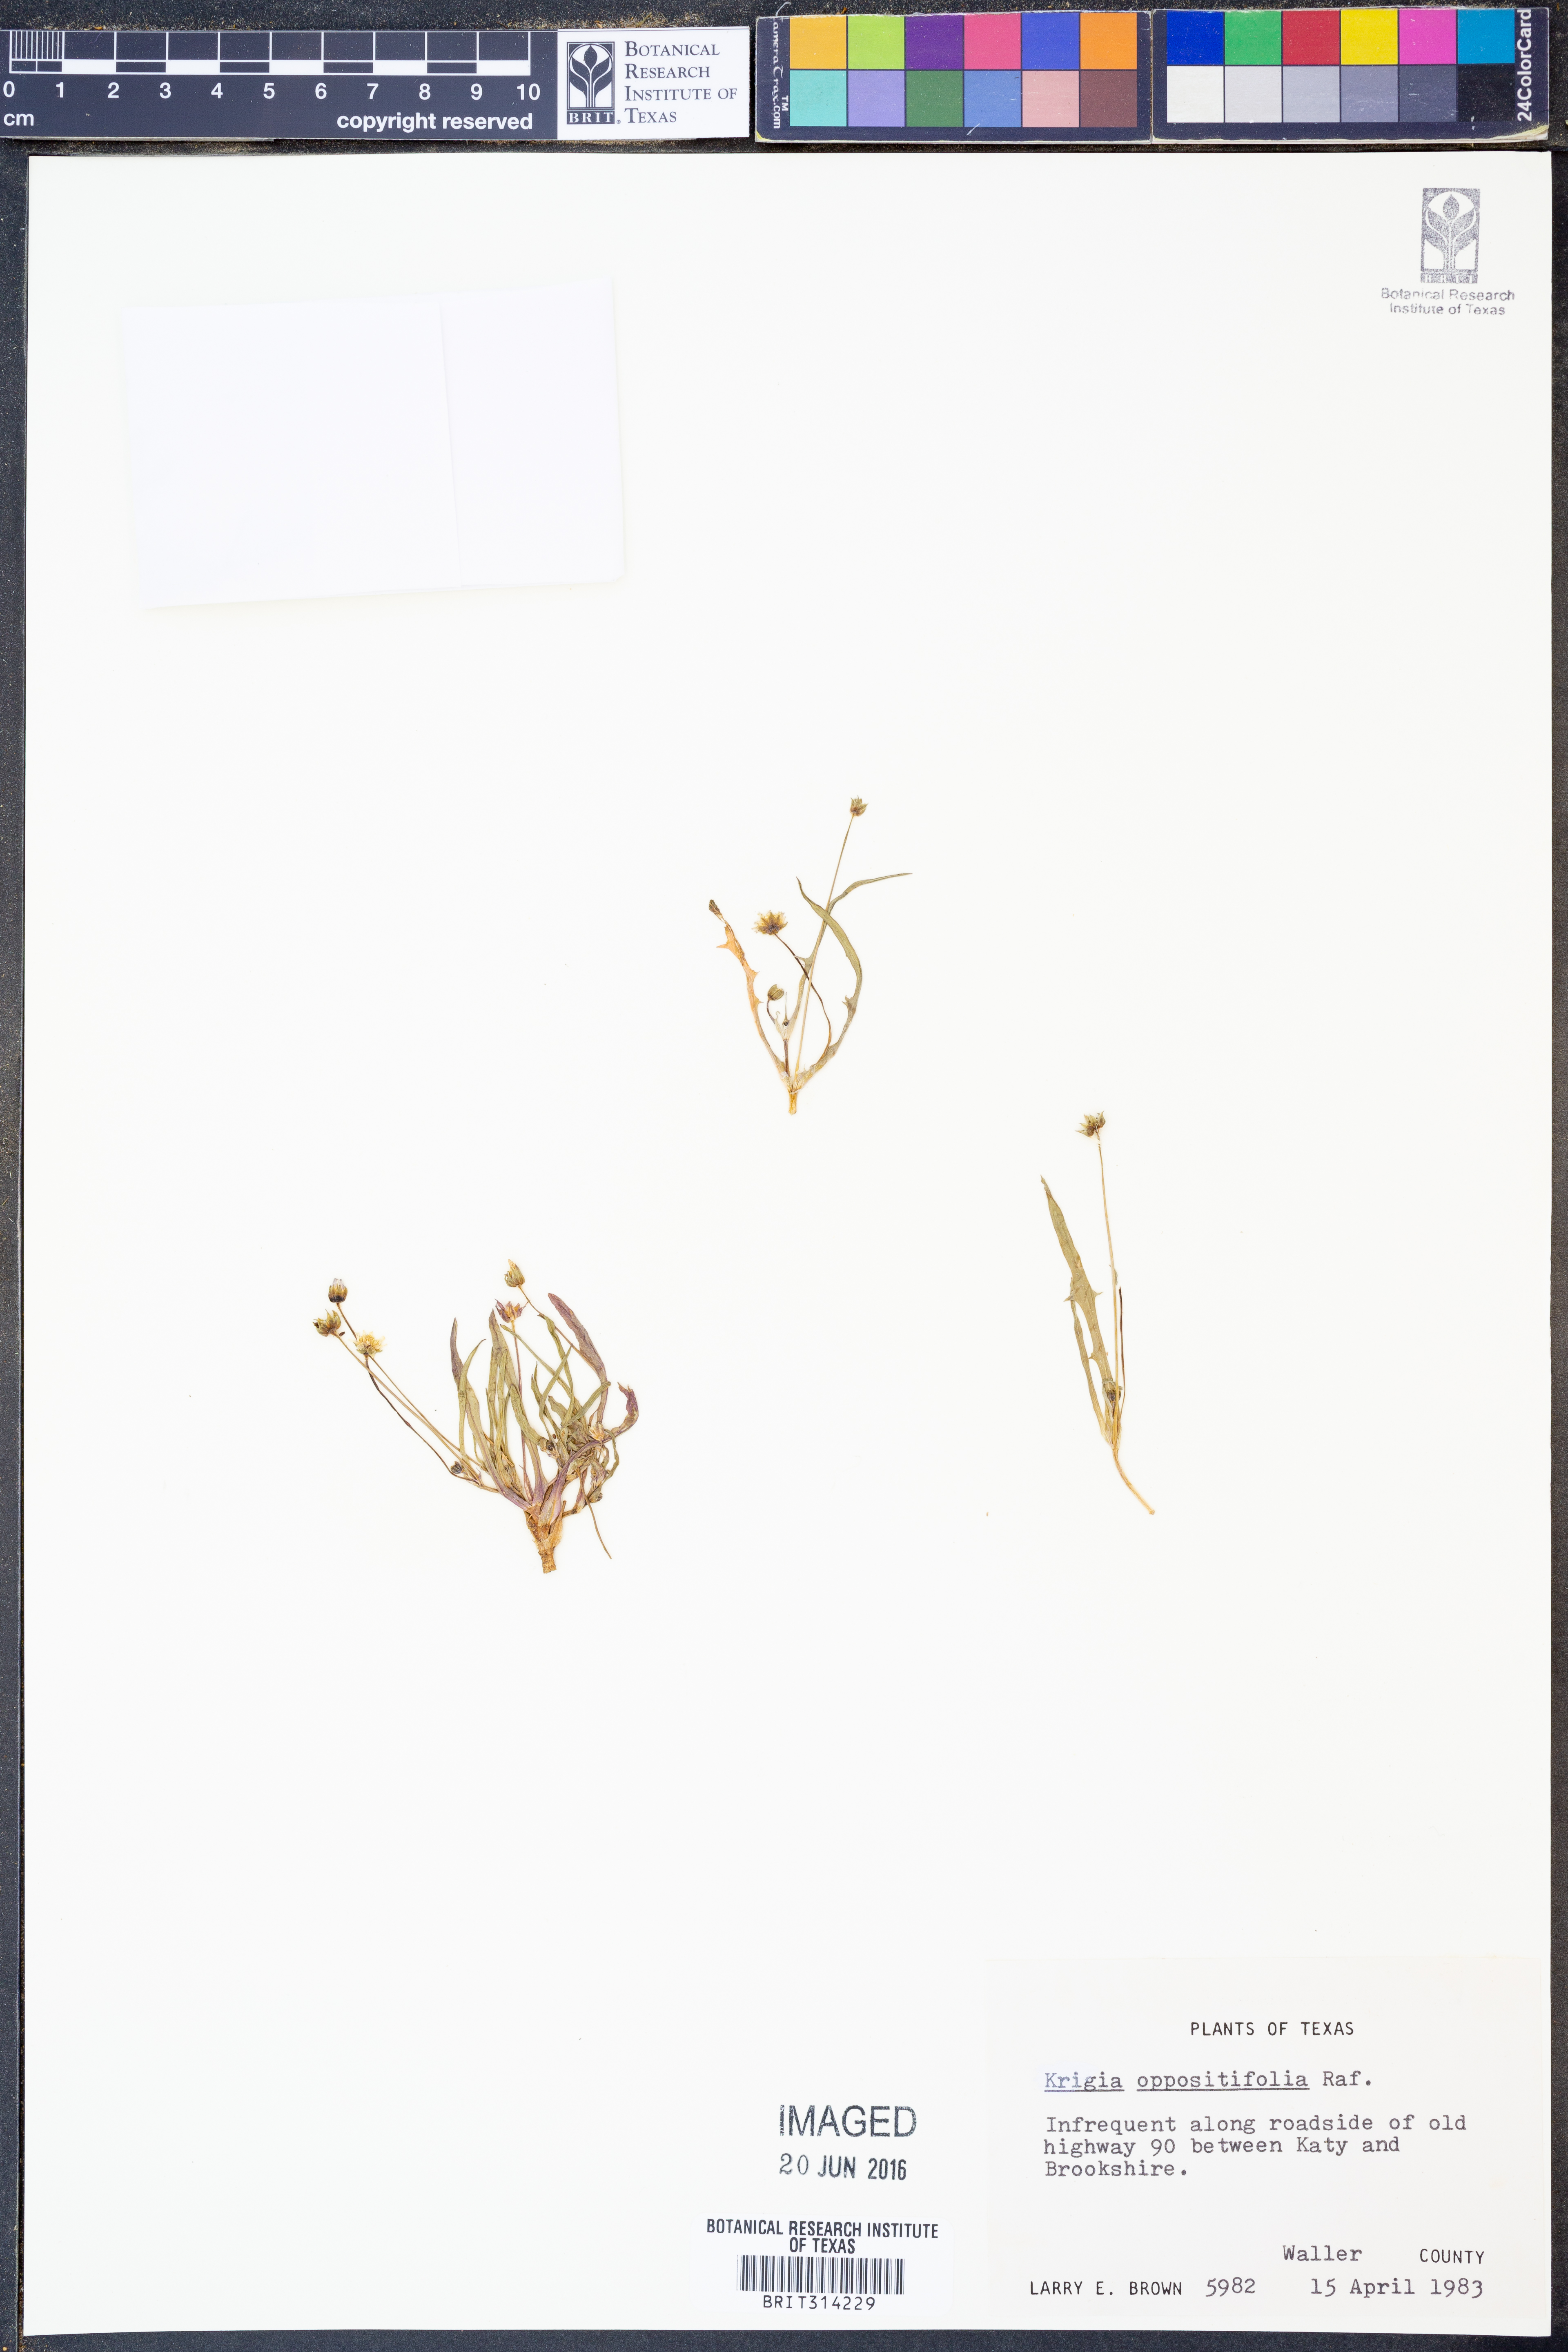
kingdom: Plantae
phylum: Tracheophyta
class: Magnoliopsida
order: Asterales
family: Asteraceae
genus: Krigia
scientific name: Krigia cespitosa
